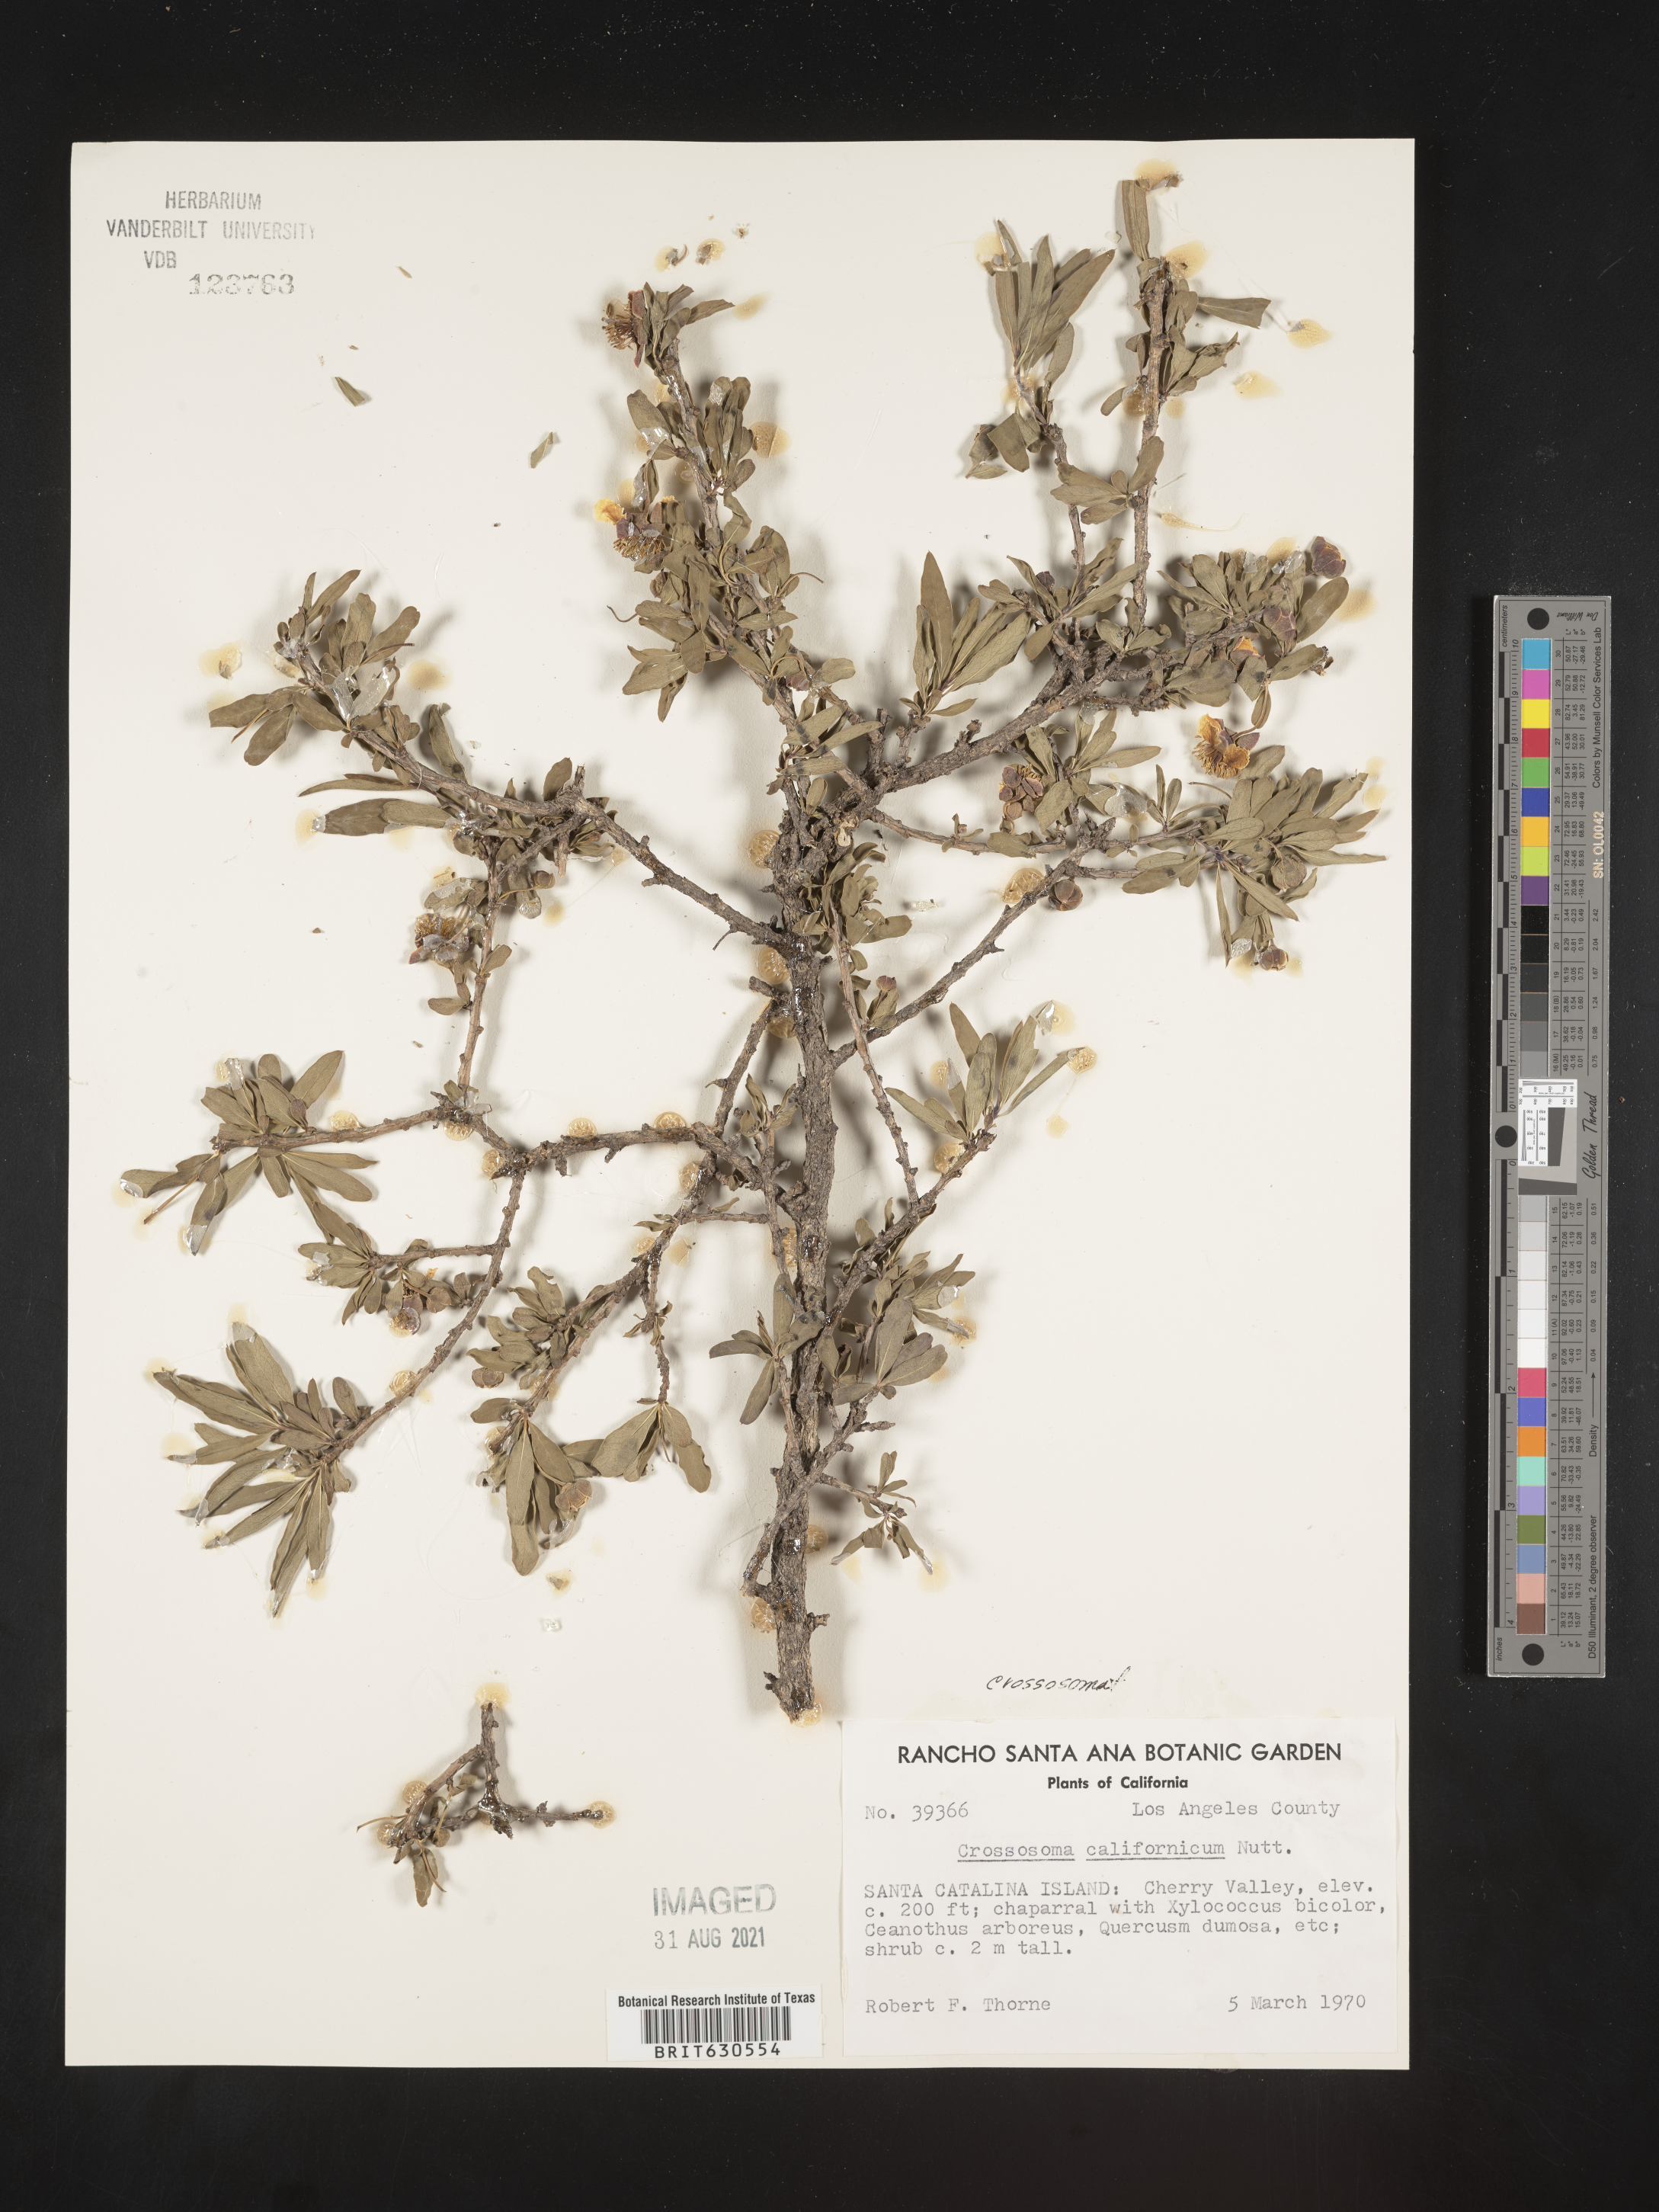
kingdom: Plantae
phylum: Tracheophyta
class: Magnoliopsida
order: Crossosomatales
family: Crossosomataceae
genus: Crossosoma
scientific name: Crossosoma californicum
